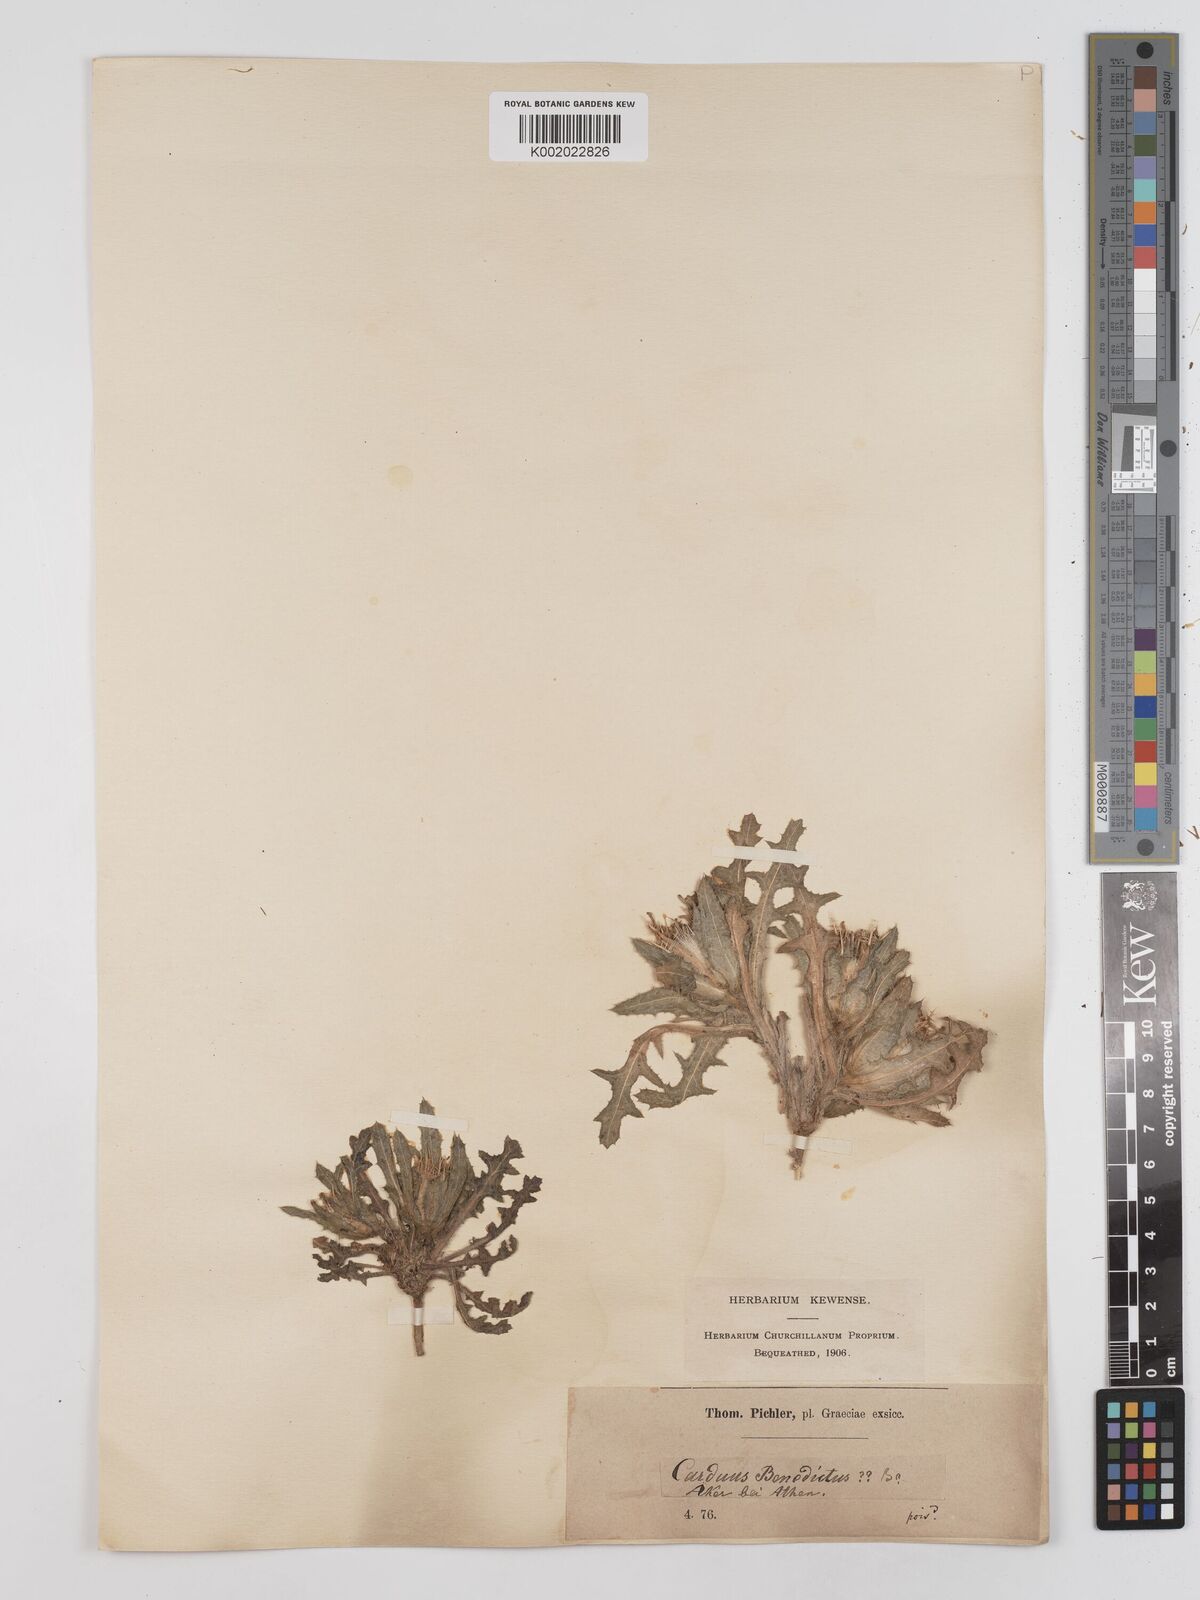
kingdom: Plantae
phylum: Tracheophyta
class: Magnoliopsida
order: Asterales
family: Asteraceae
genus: Centaurea
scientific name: Centaurea benedicta
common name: Blessed thistle
